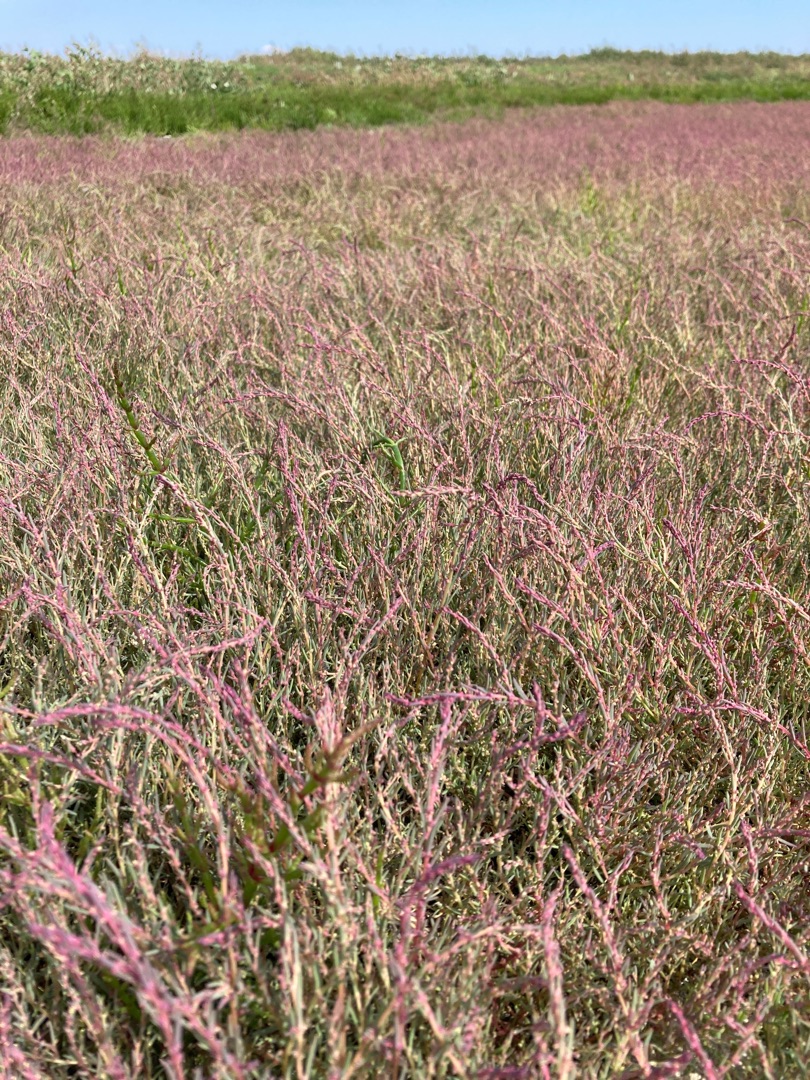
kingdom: Plantae
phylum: Tracheophyta
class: Magnoliopsida
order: Caryophyllales
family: Amaranthaceae
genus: Suaeda
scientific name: Suaeda maritima
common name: Strandgåsefod
